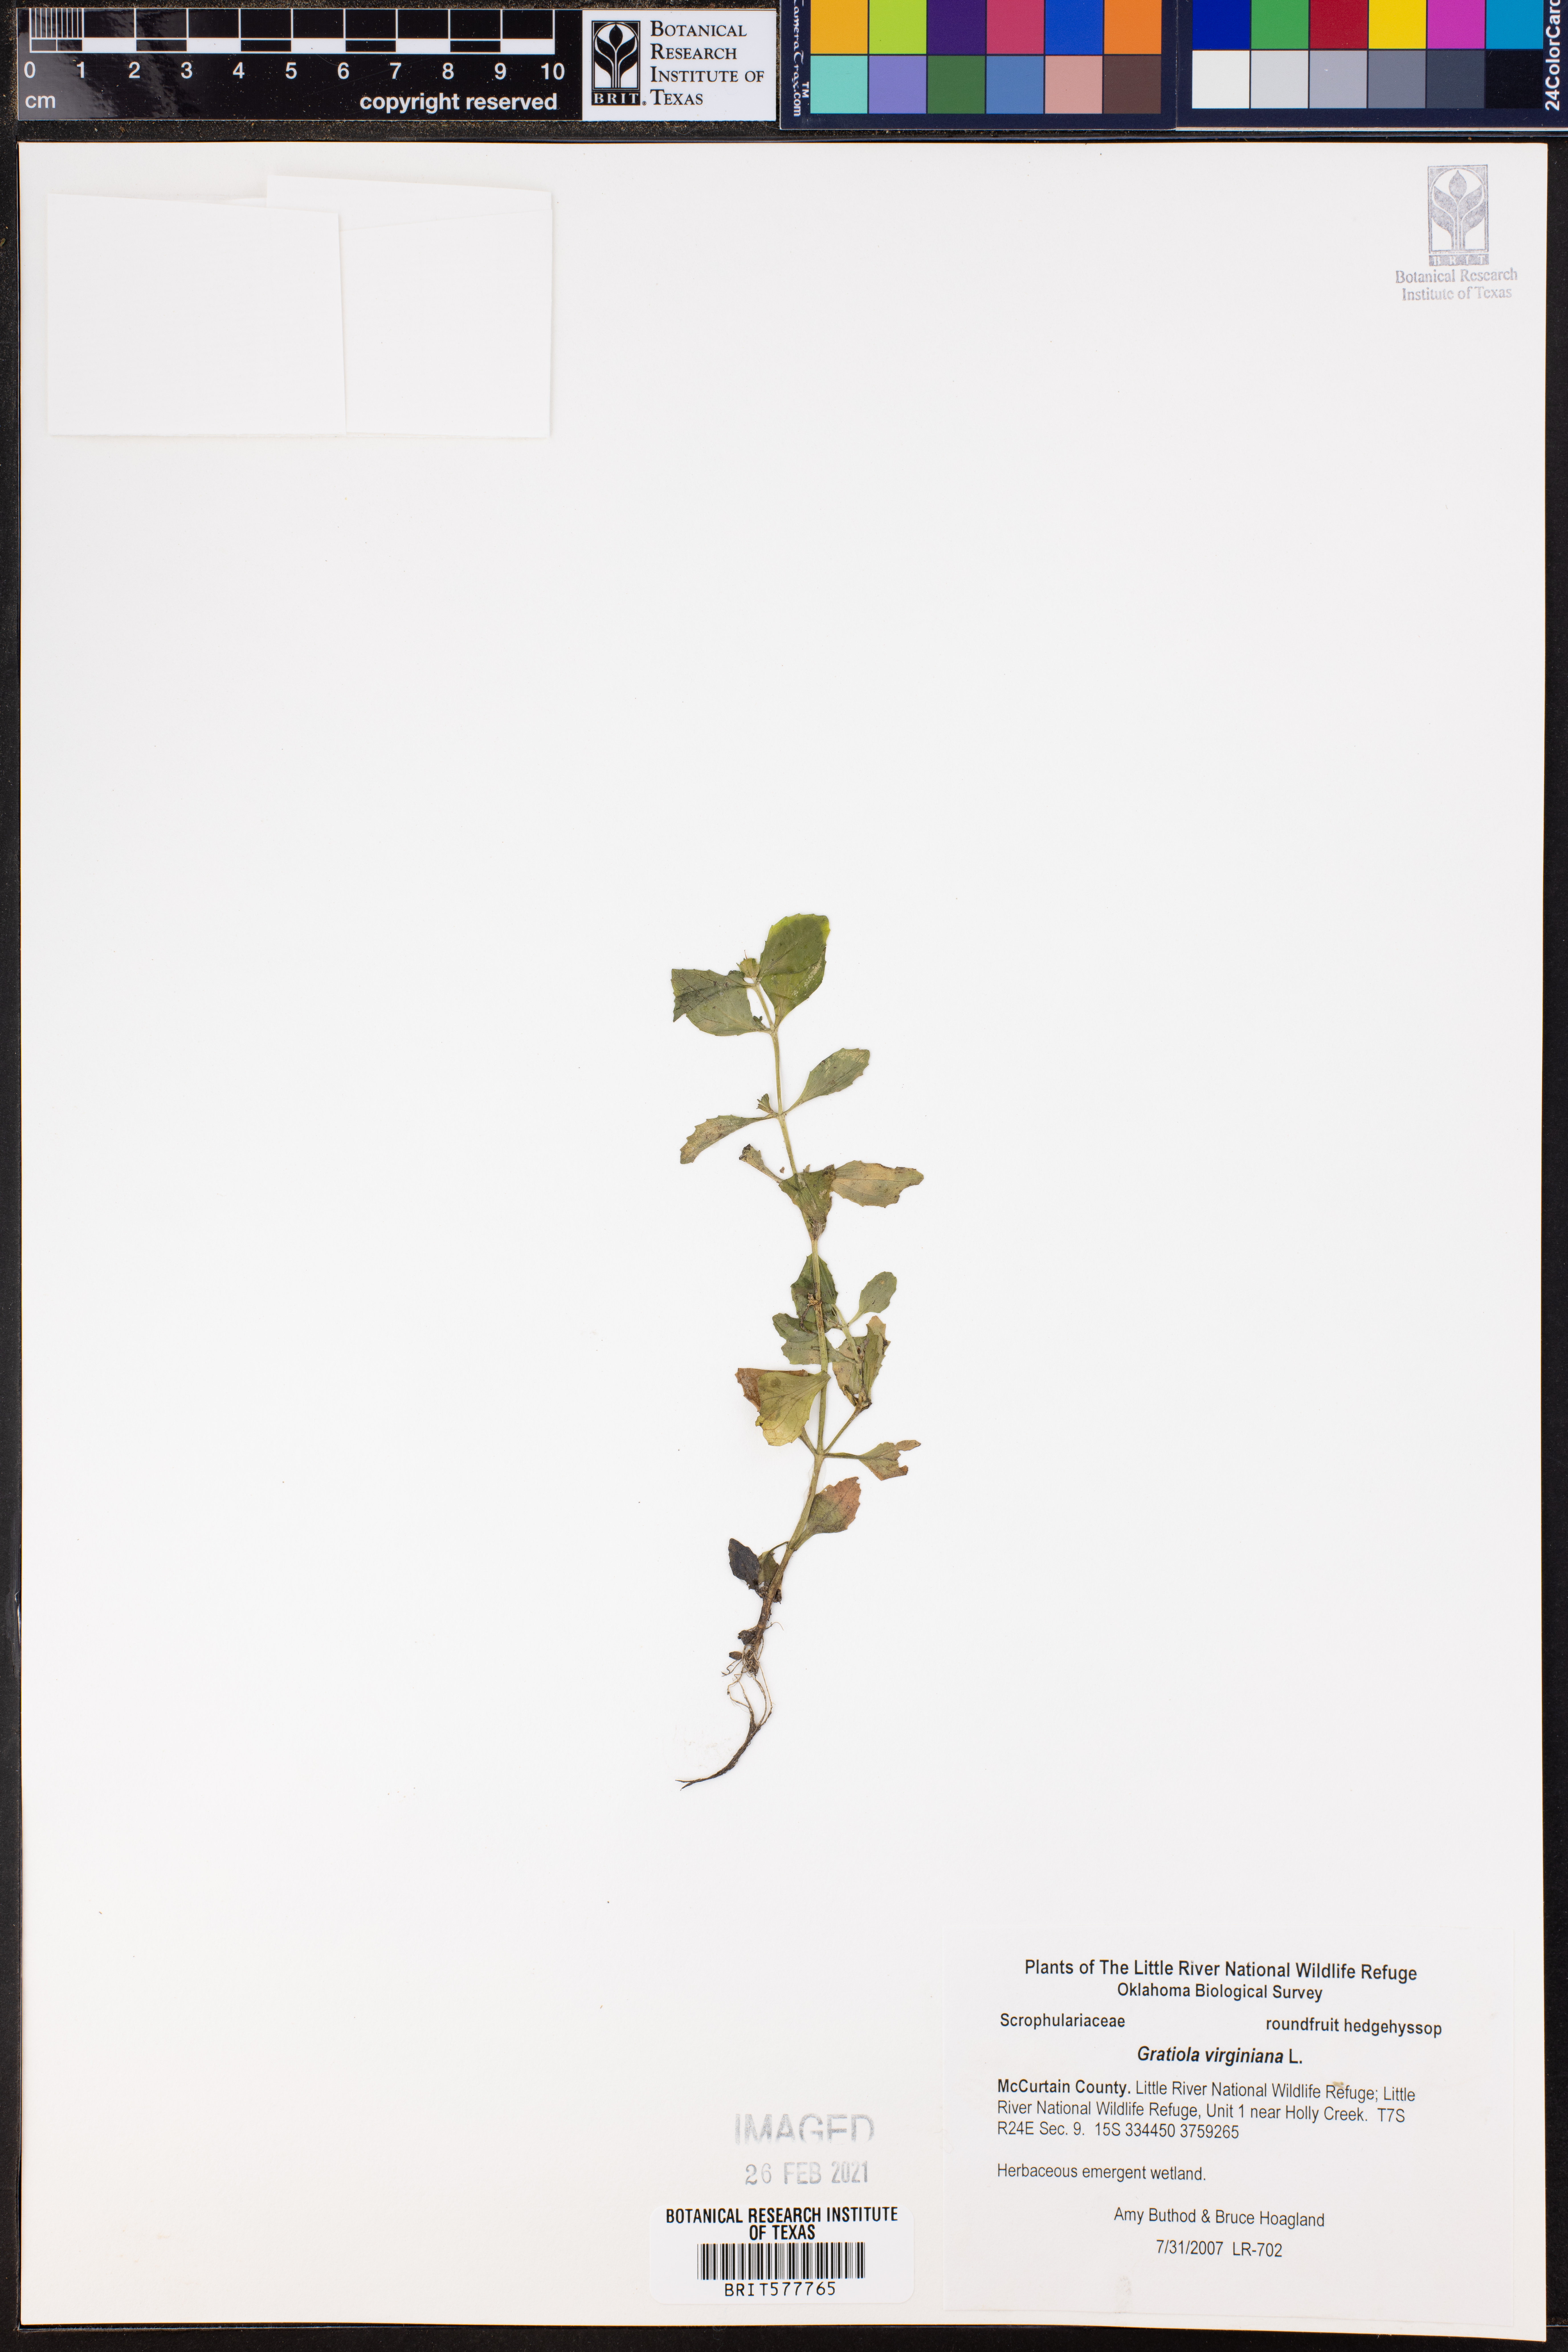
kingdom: Plantae
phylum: Tracheophyta
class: Magnoliopsida
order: Lamiales
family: Plantaginaceae
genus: Gratiola
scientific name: Gratiola virginiana
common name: Roundfruit hedgehyssop
